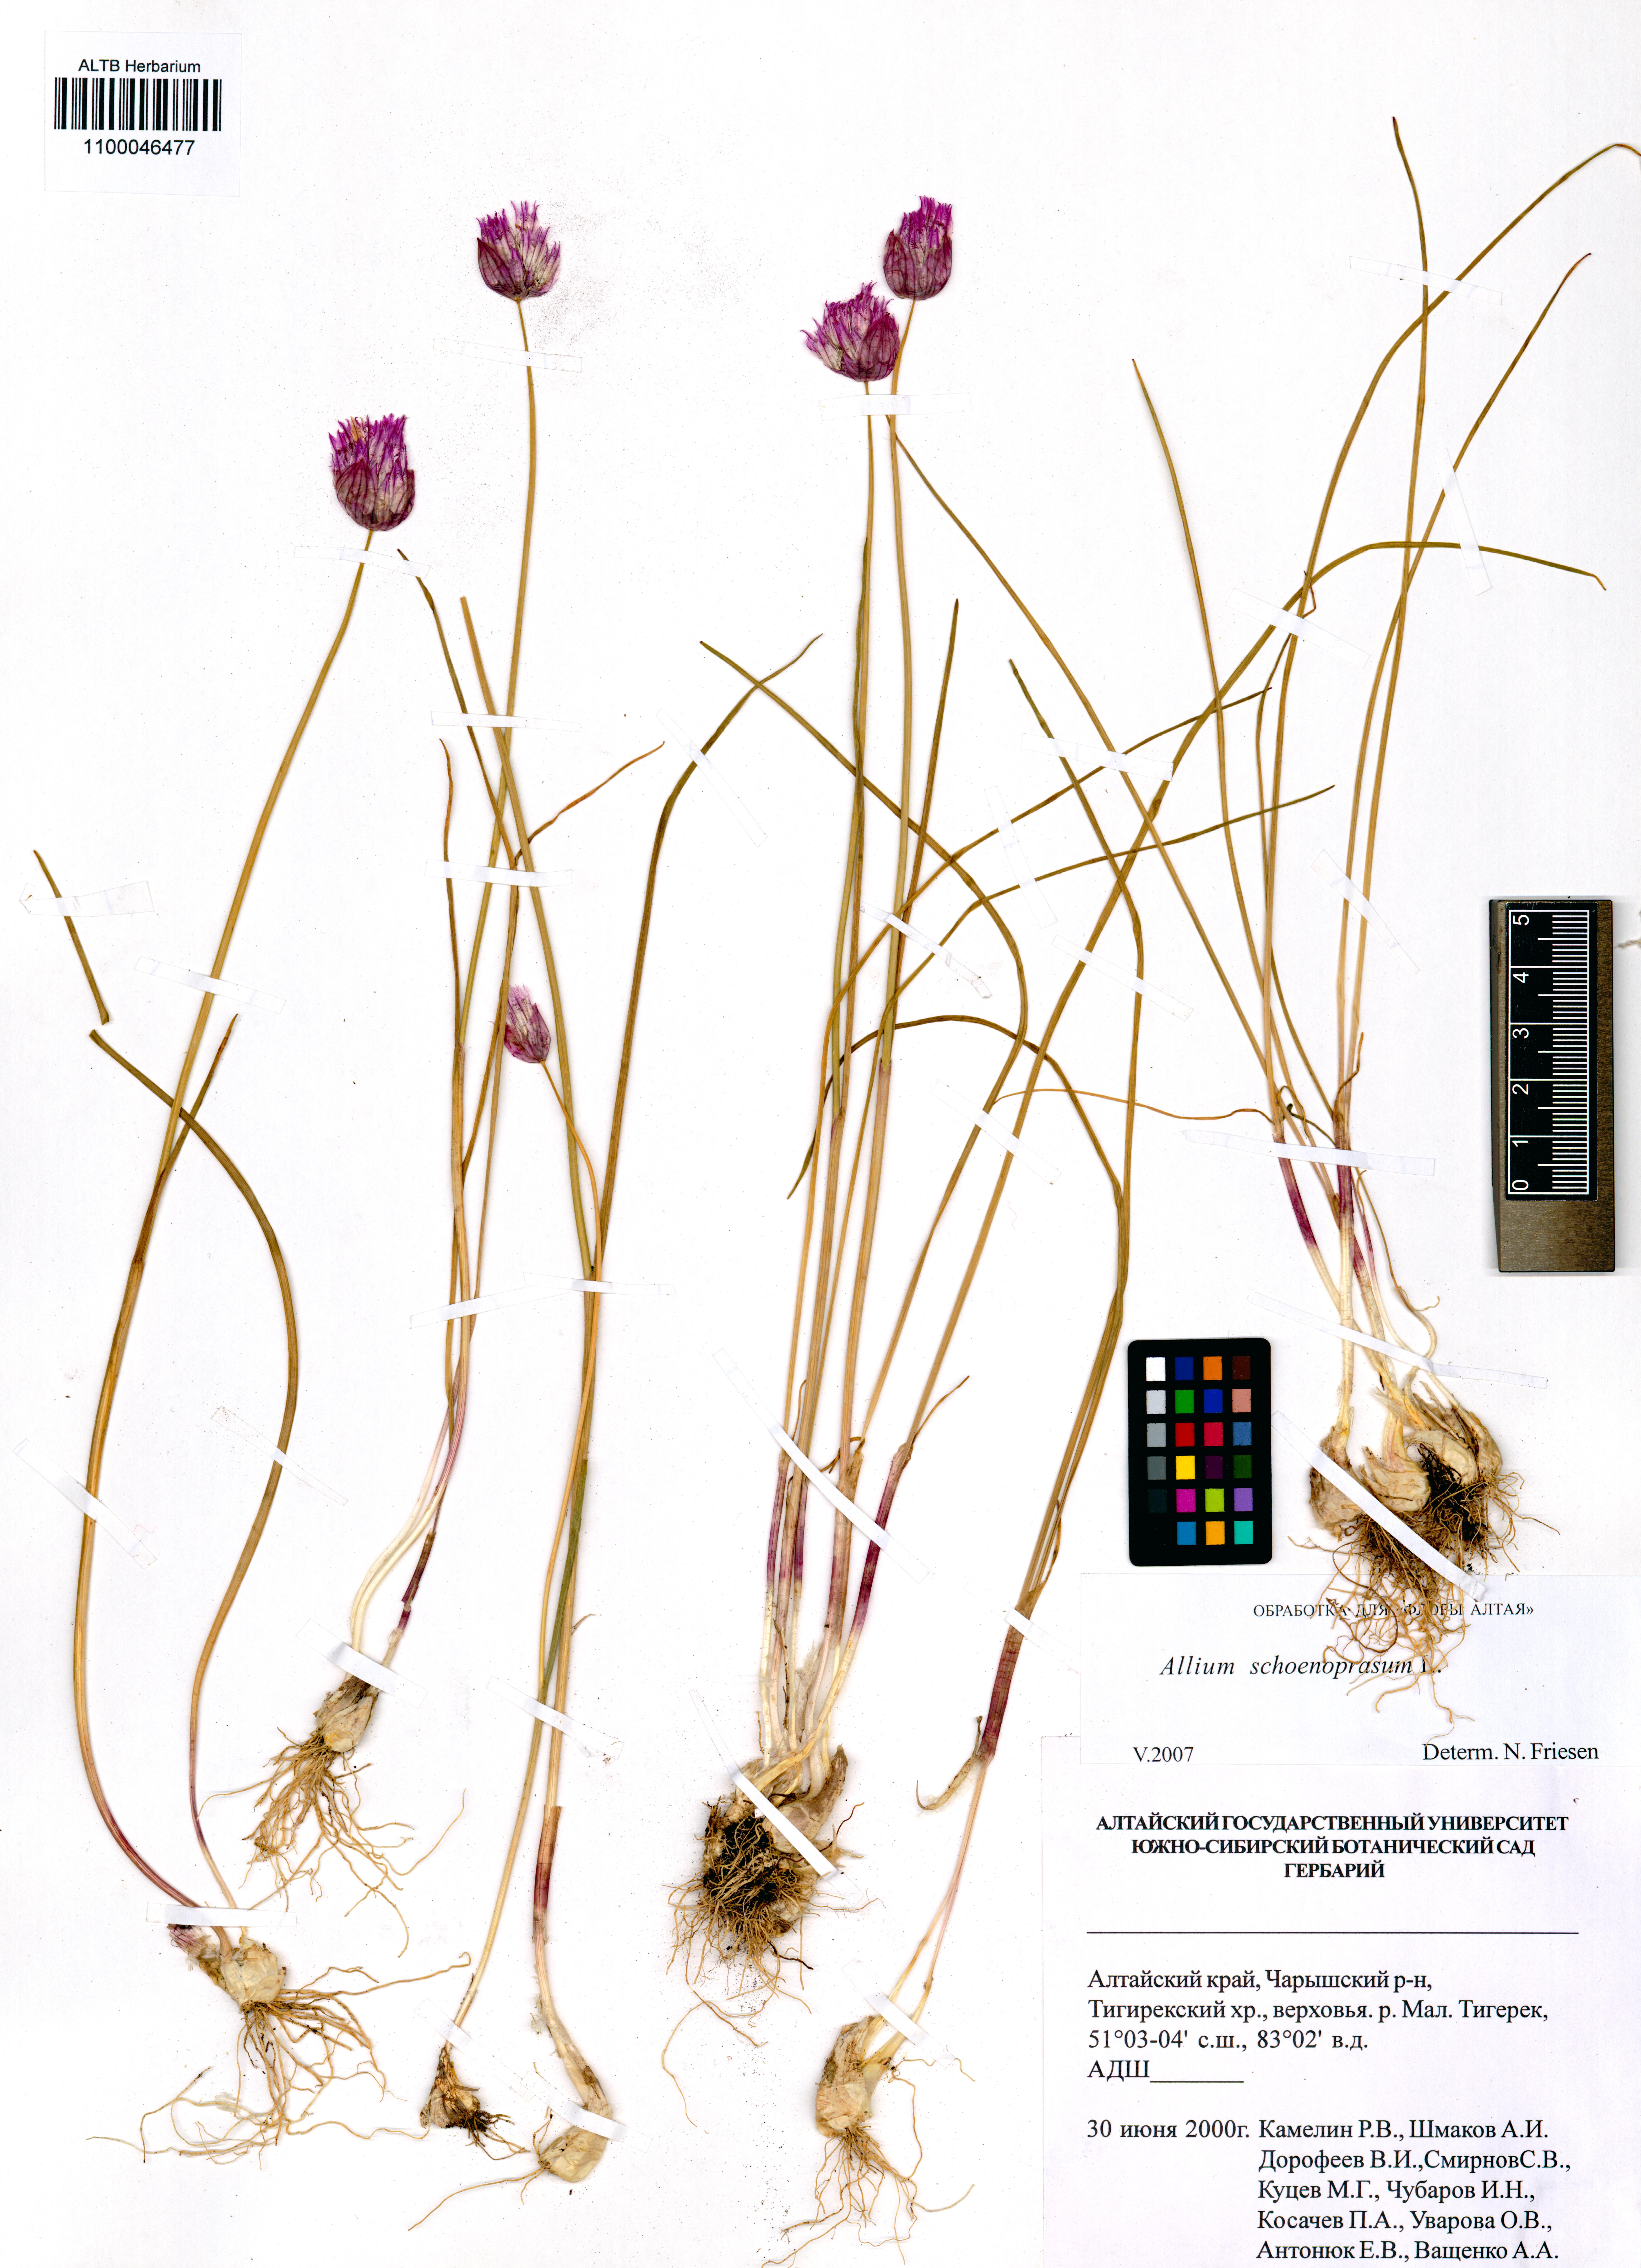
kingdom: Plantae
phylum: Tracheophyta
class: Liliopsida
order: Asparagales
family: Amaryllidaceae
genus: Allium
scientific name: Allium schoenoprasum
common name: Chives
